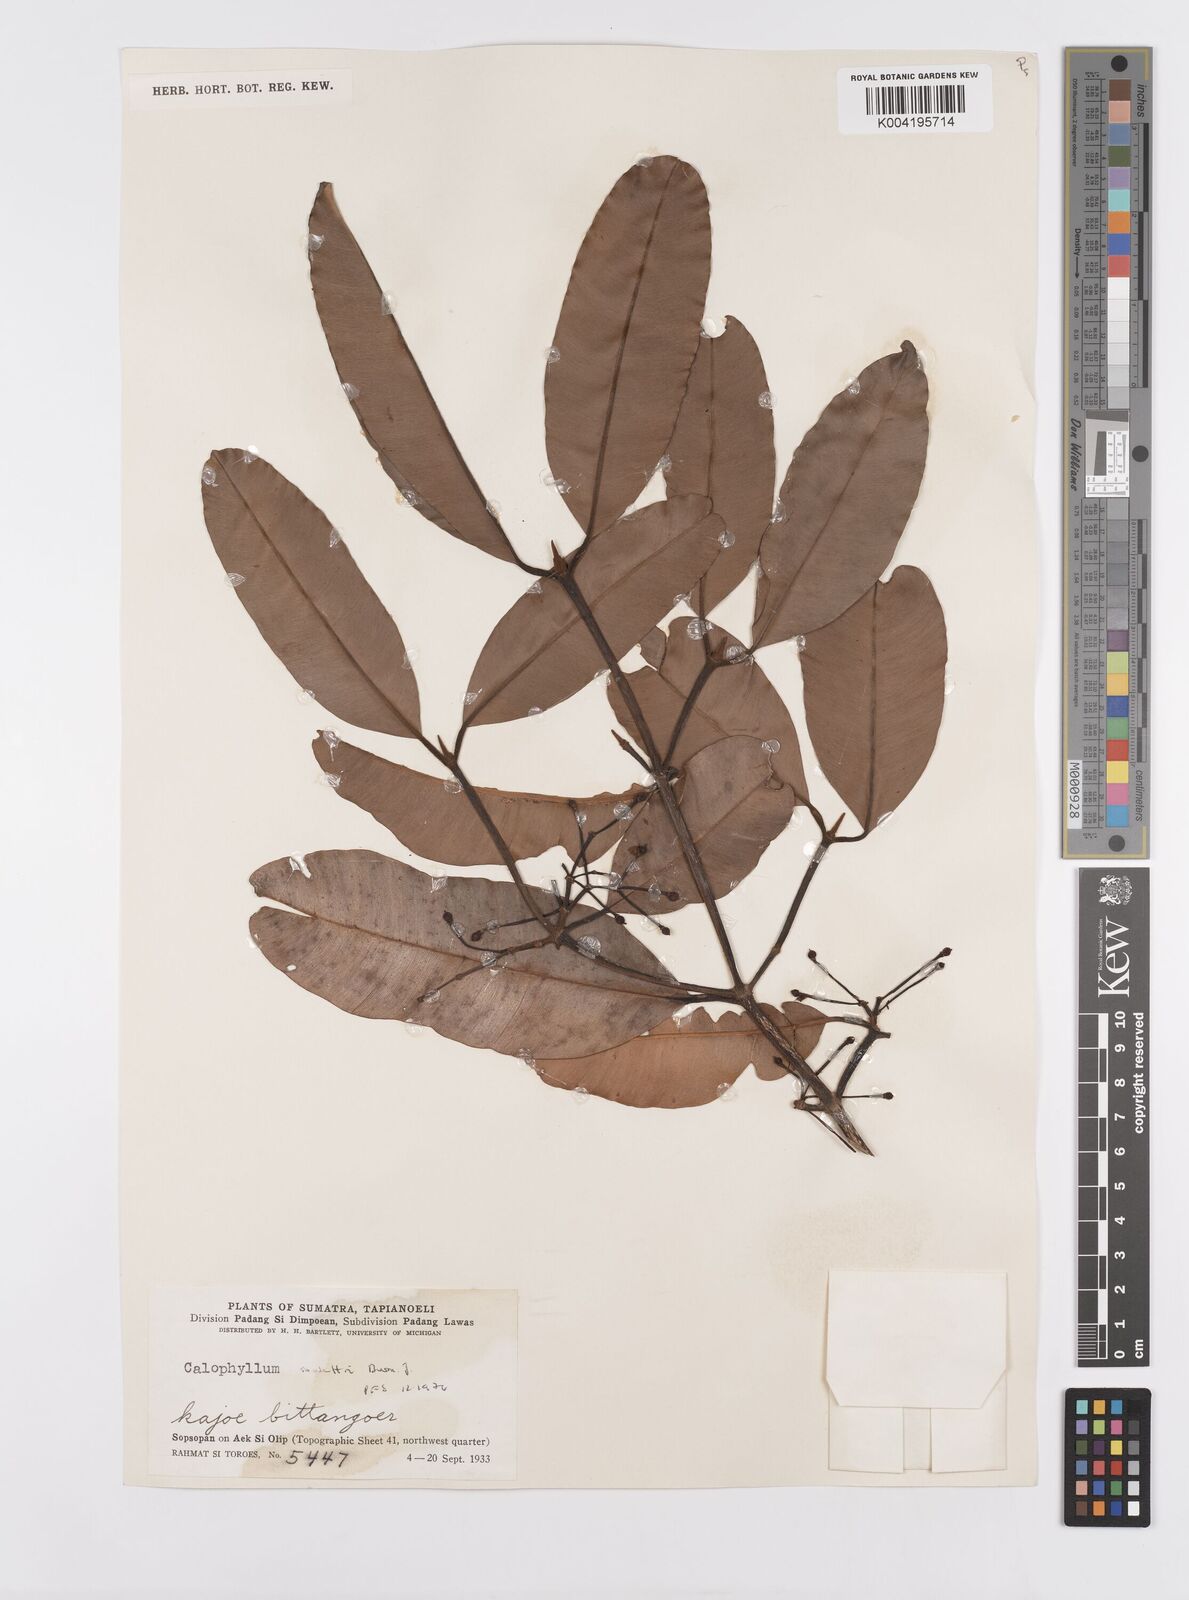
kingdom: Plantae
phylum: Tracheophyta
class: Magnoliopsida
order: Malpighiales
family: Calophyllaceae
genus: Calophyllum
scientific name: Calophyllum soulattri
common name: Bitangoor boonot
